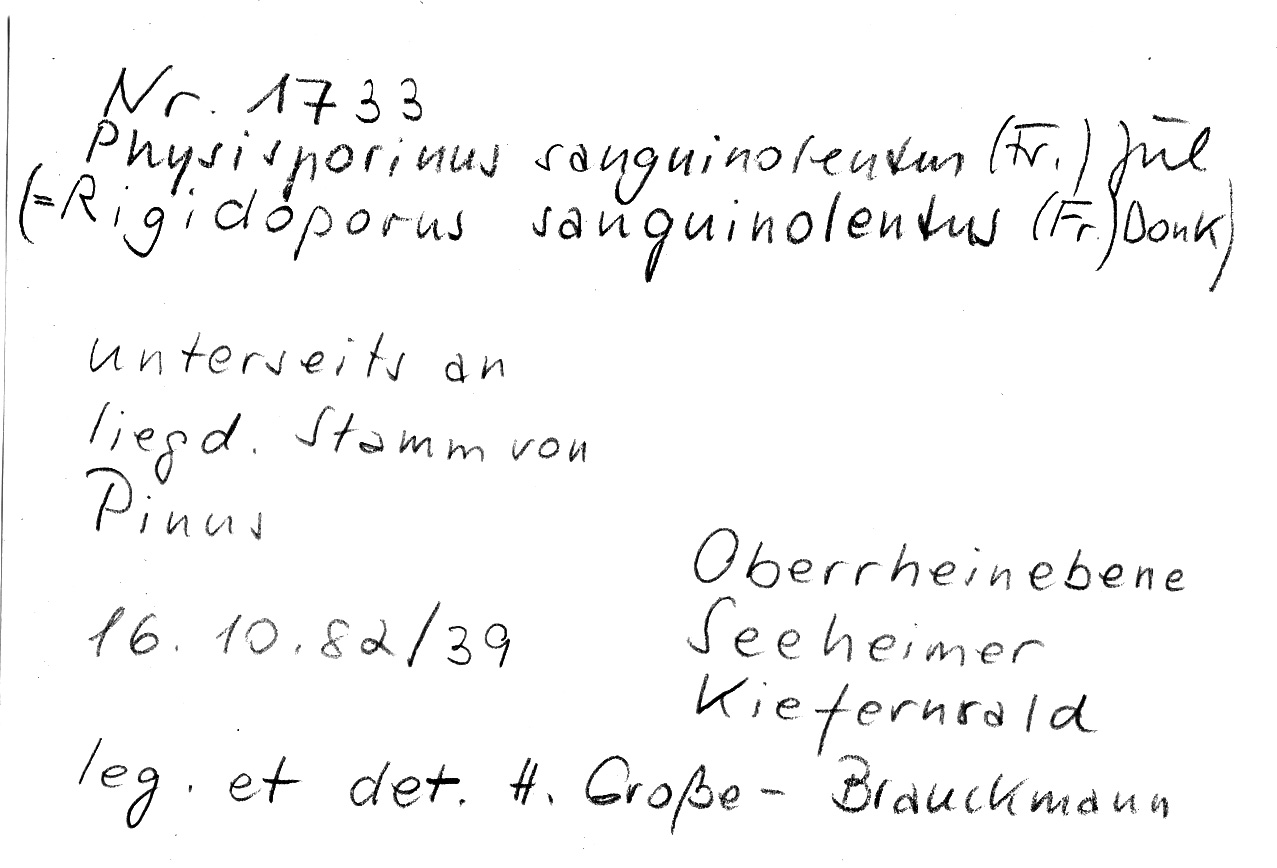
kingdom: Fungi
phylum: Basidiomycota
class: Agaricomycetes
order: Polyporales
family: Meripilaceae
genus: Rigidoporus
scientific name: Rigidoporus sanguinolentus
